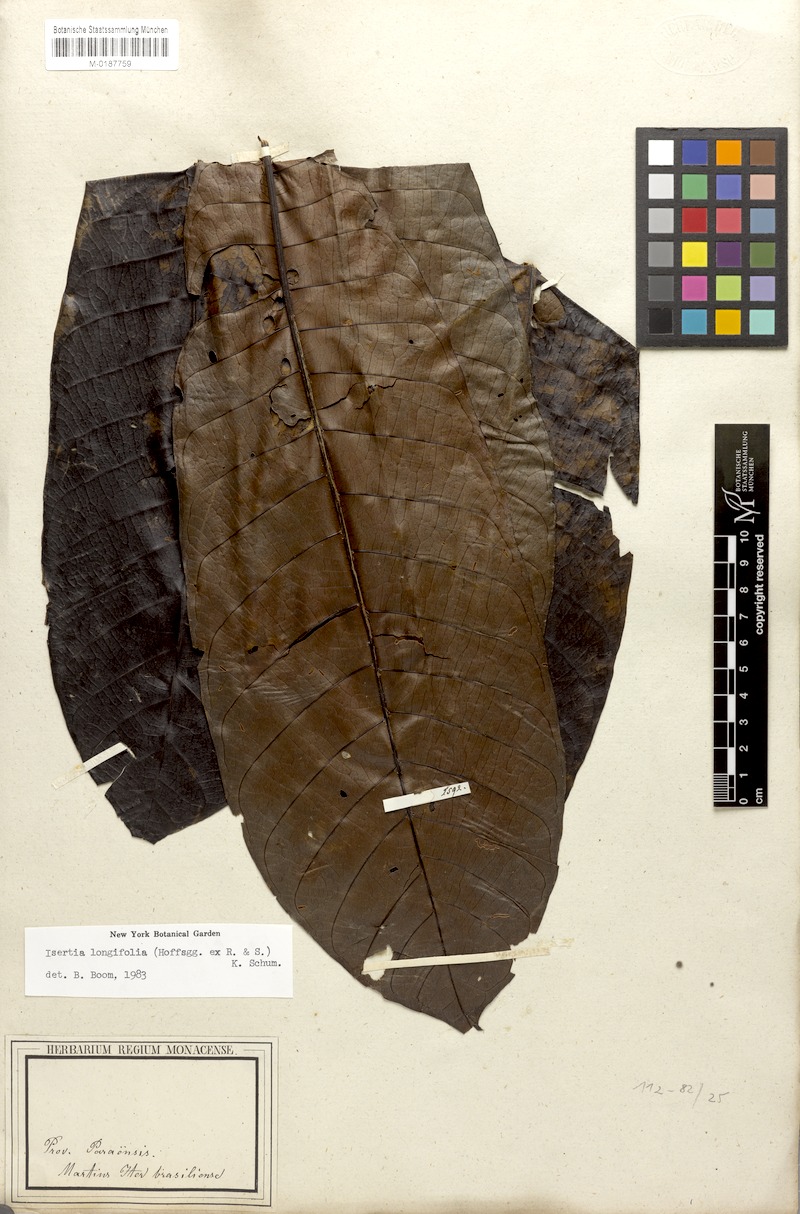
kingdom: Plantae
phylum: Tracheophyta
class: Magnoliopsida
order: Gentianales
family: Rubiaceae
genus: Isertia
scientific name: Isertia longifolia
